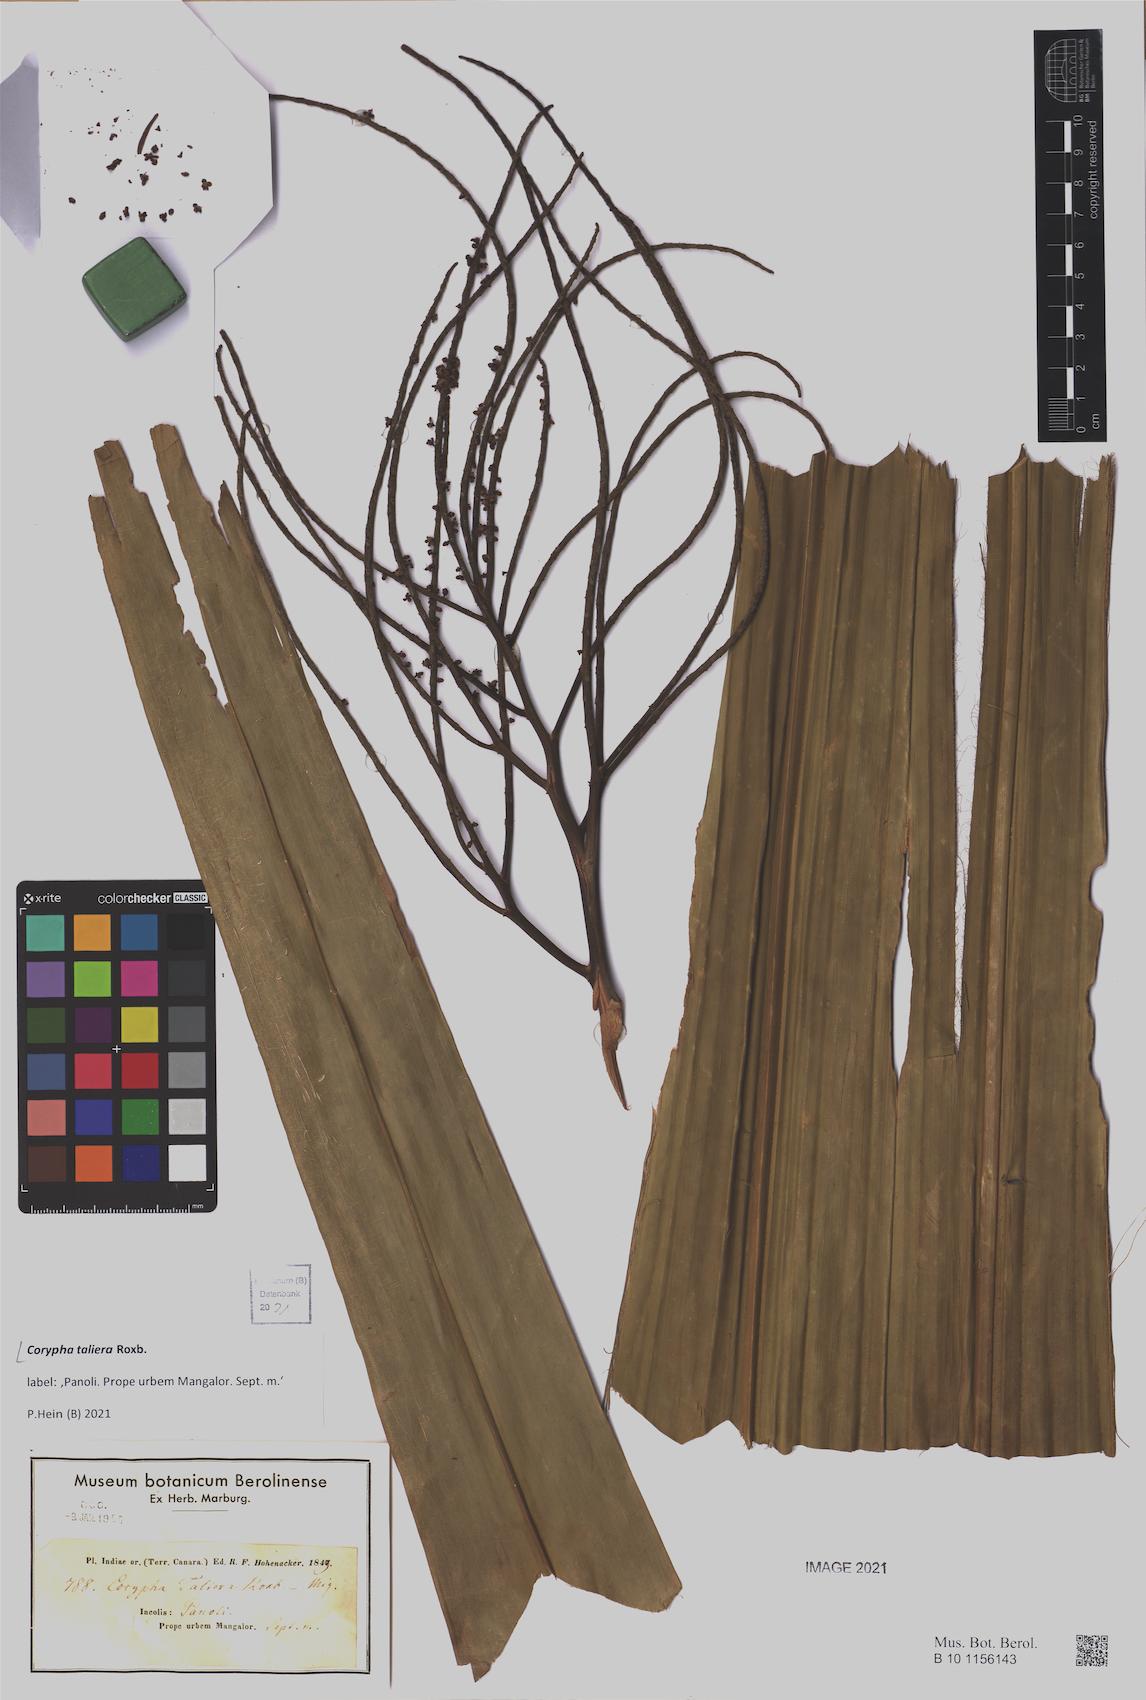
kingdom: Plantae
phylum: Tracheophyta
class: Liliopsida
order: Arecales
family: Arecaceae
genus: Corypha
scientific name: Corypha taliera
